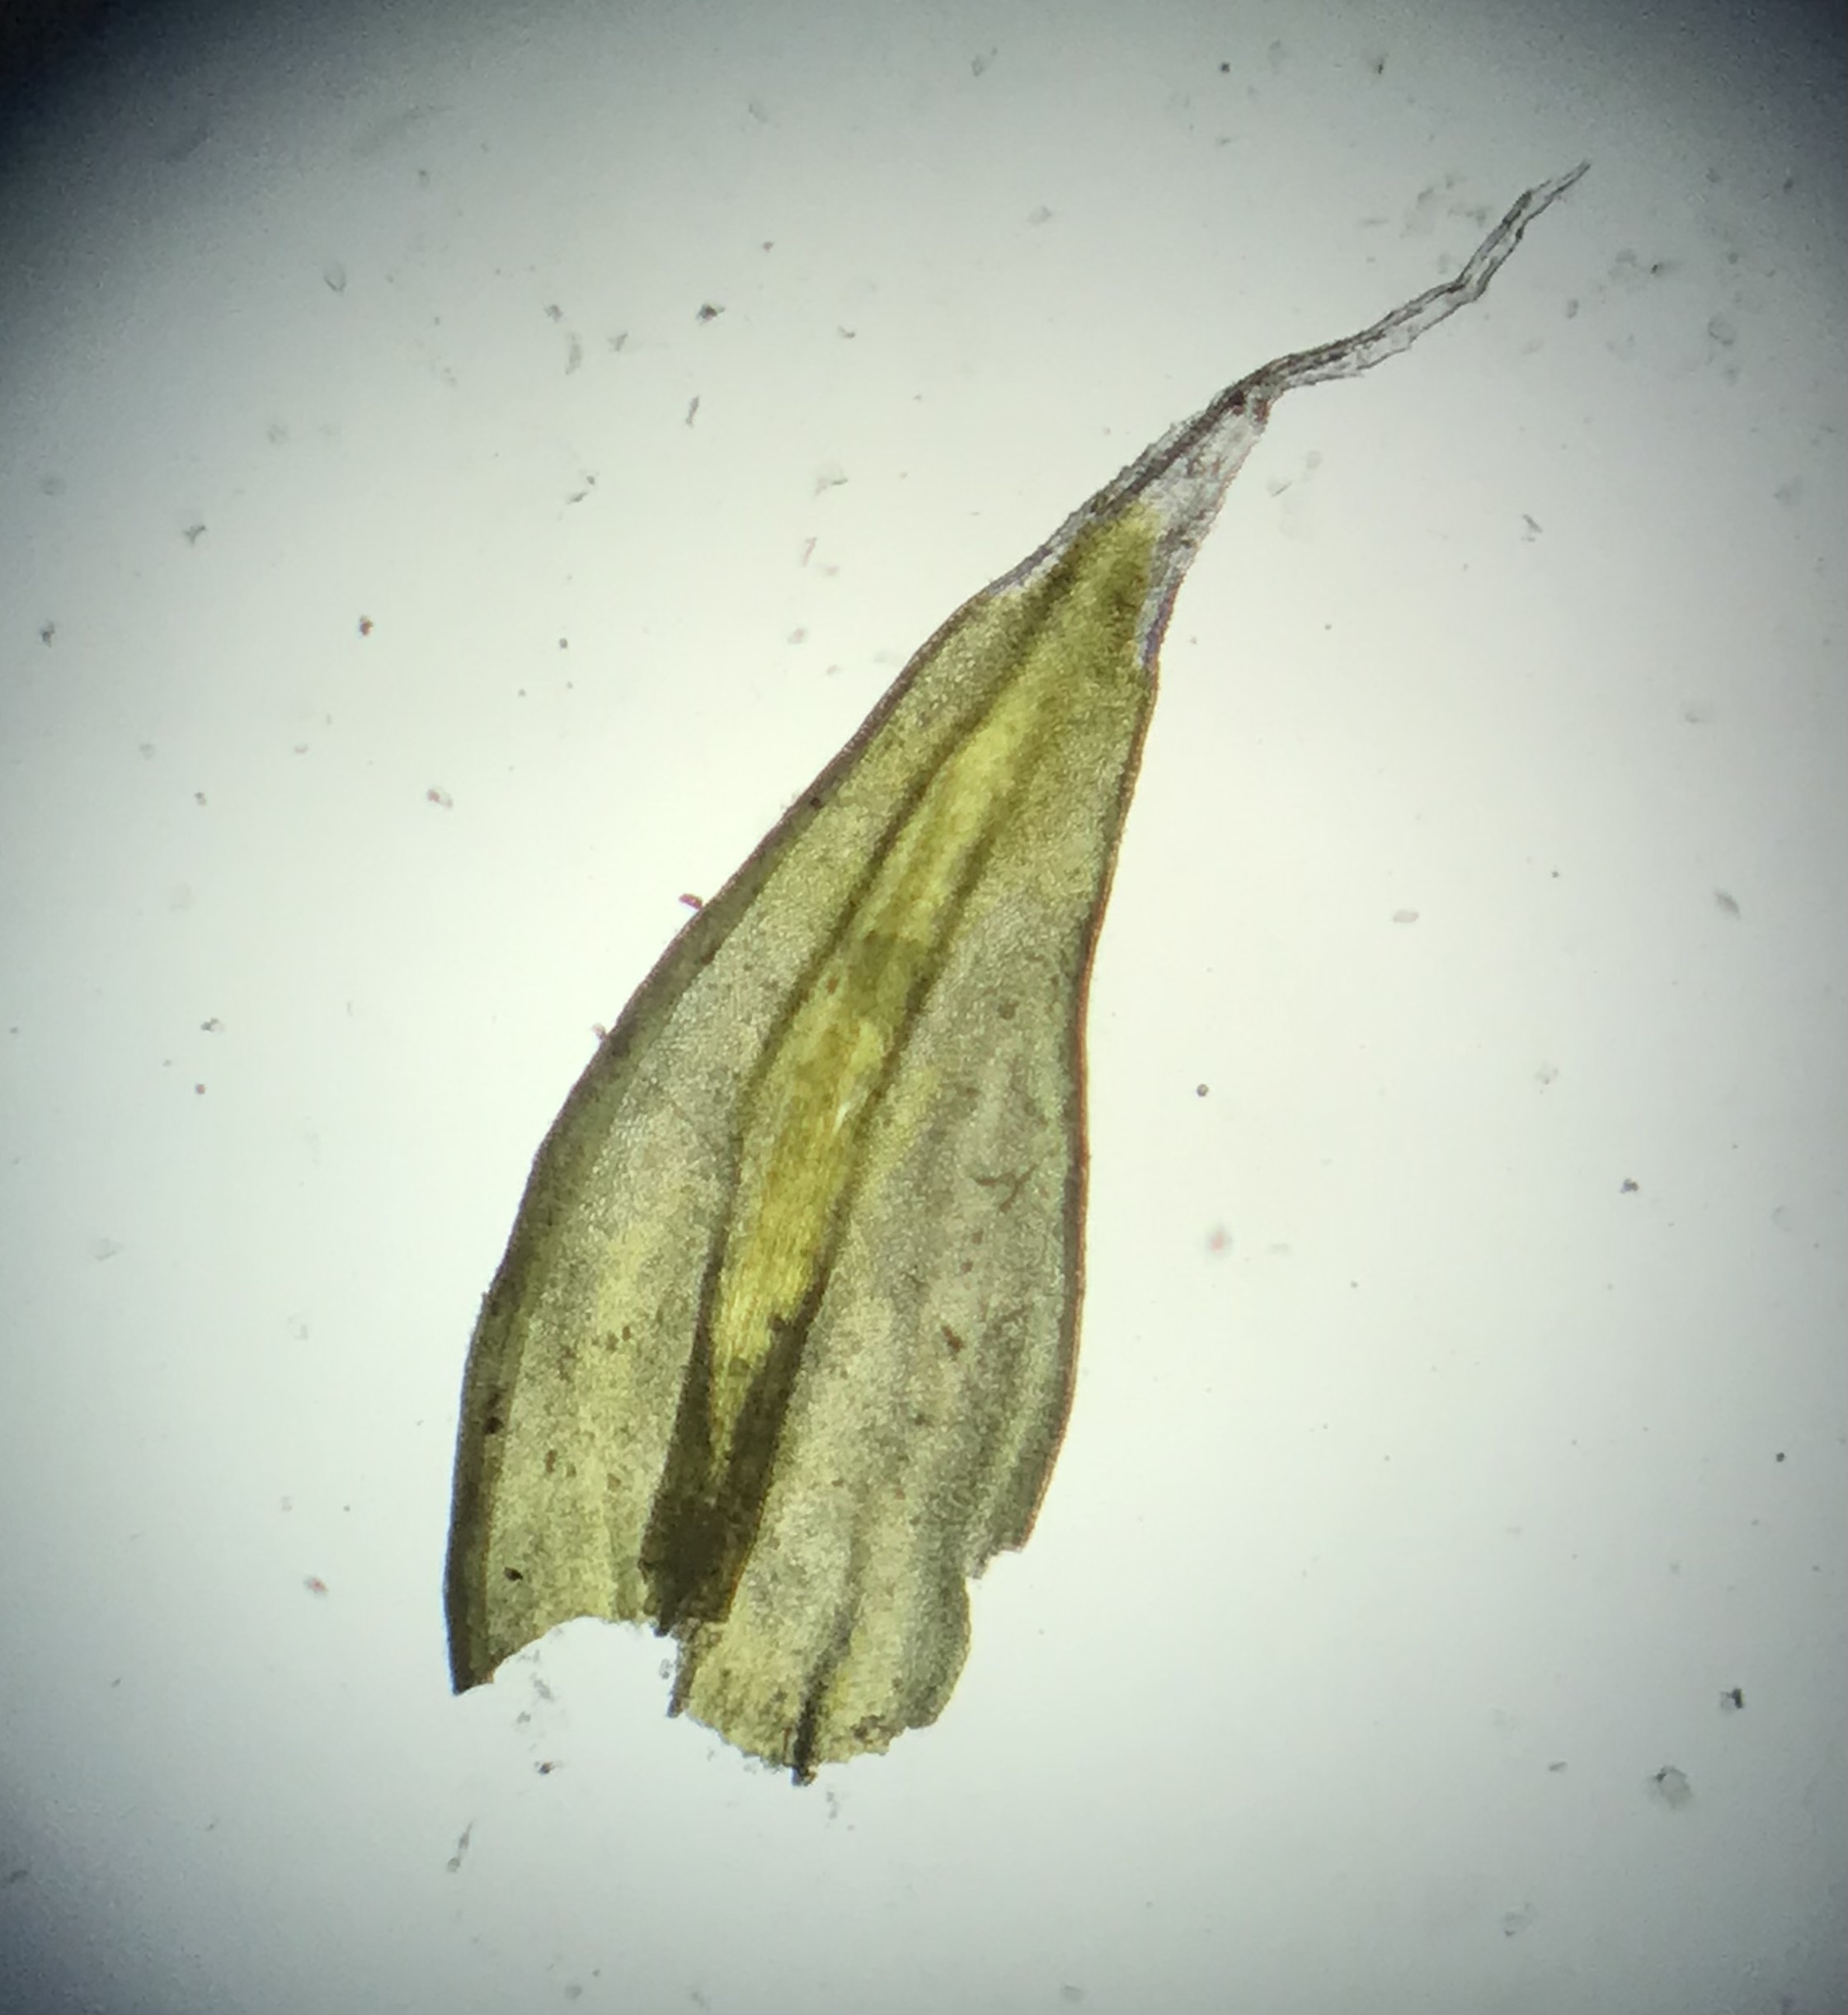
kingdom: Plantae
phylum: Bryophyta
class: Bryopsida
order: Grimmiales
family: Grimmiaceae
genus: Niphotrichum
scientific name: Niphotrichum elongatum
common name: Lang børstemos
